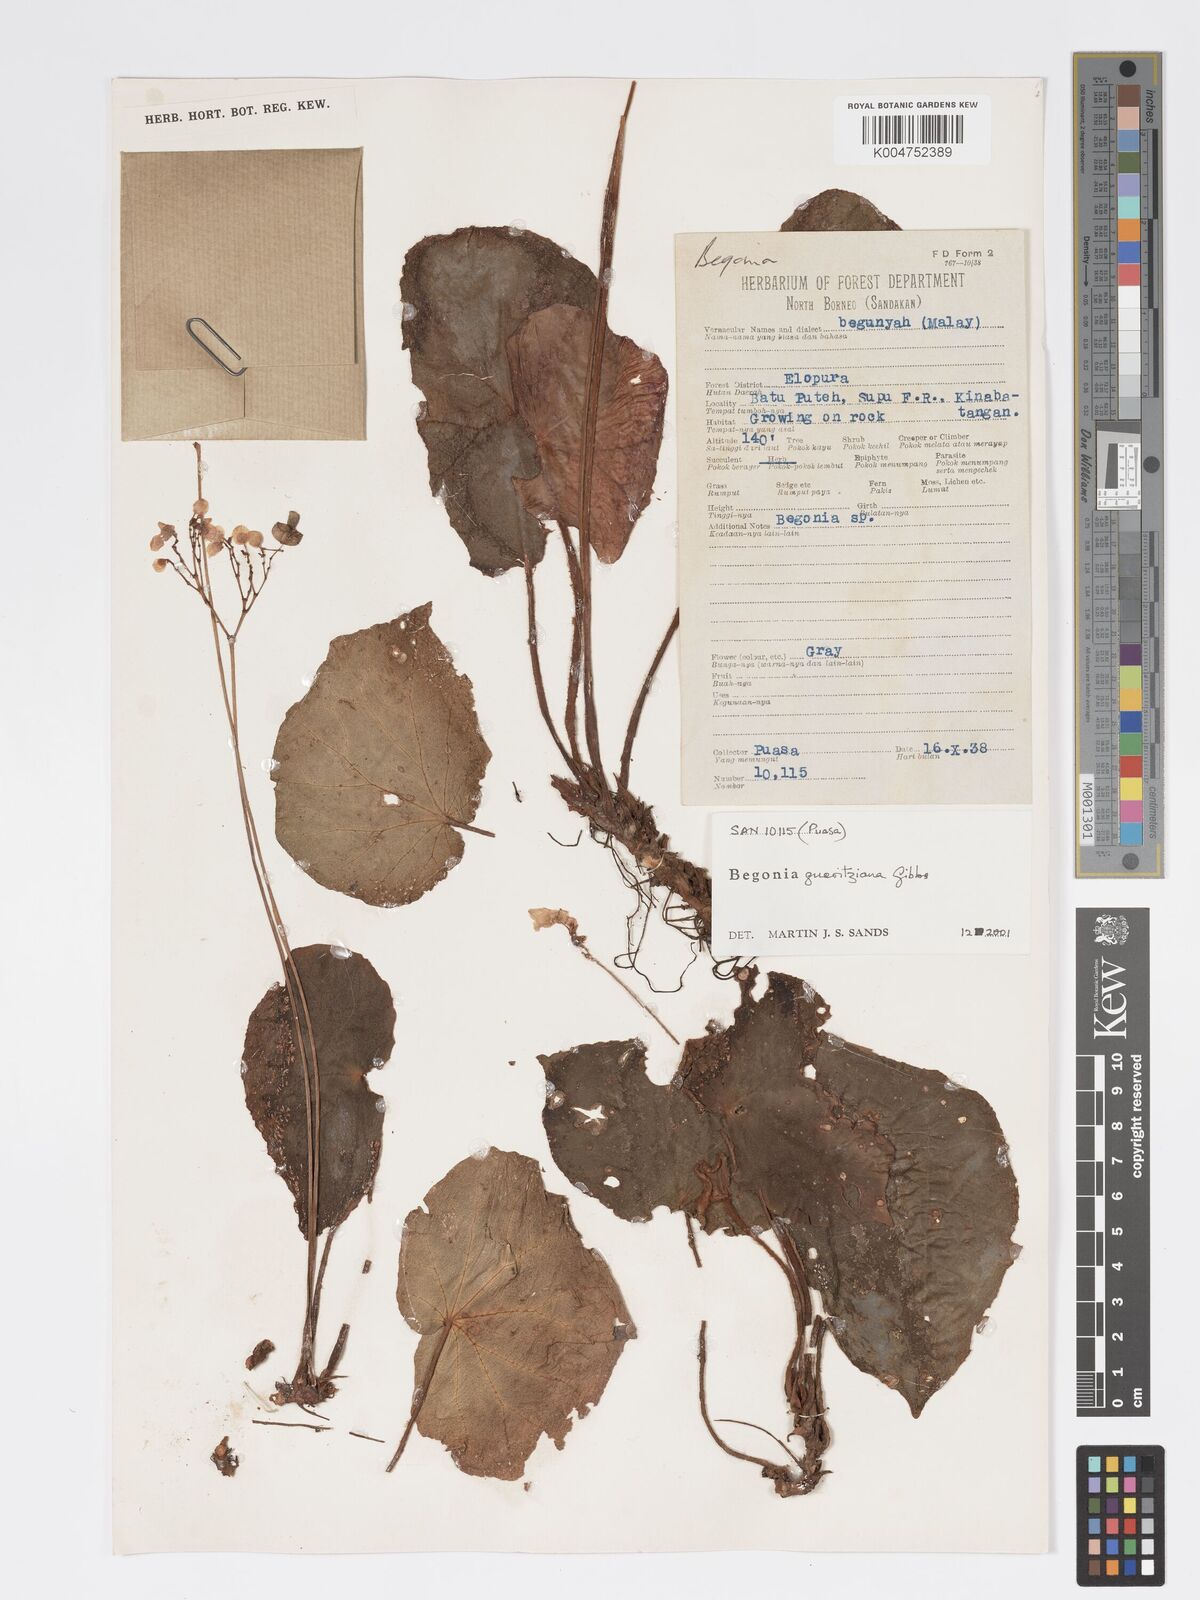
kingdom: Plantae
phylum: Tracheophyta
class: Magnoliopsida
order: Cucurbitales
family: Begoniaceae
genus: Begonia
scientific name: Begonia gueritziana
